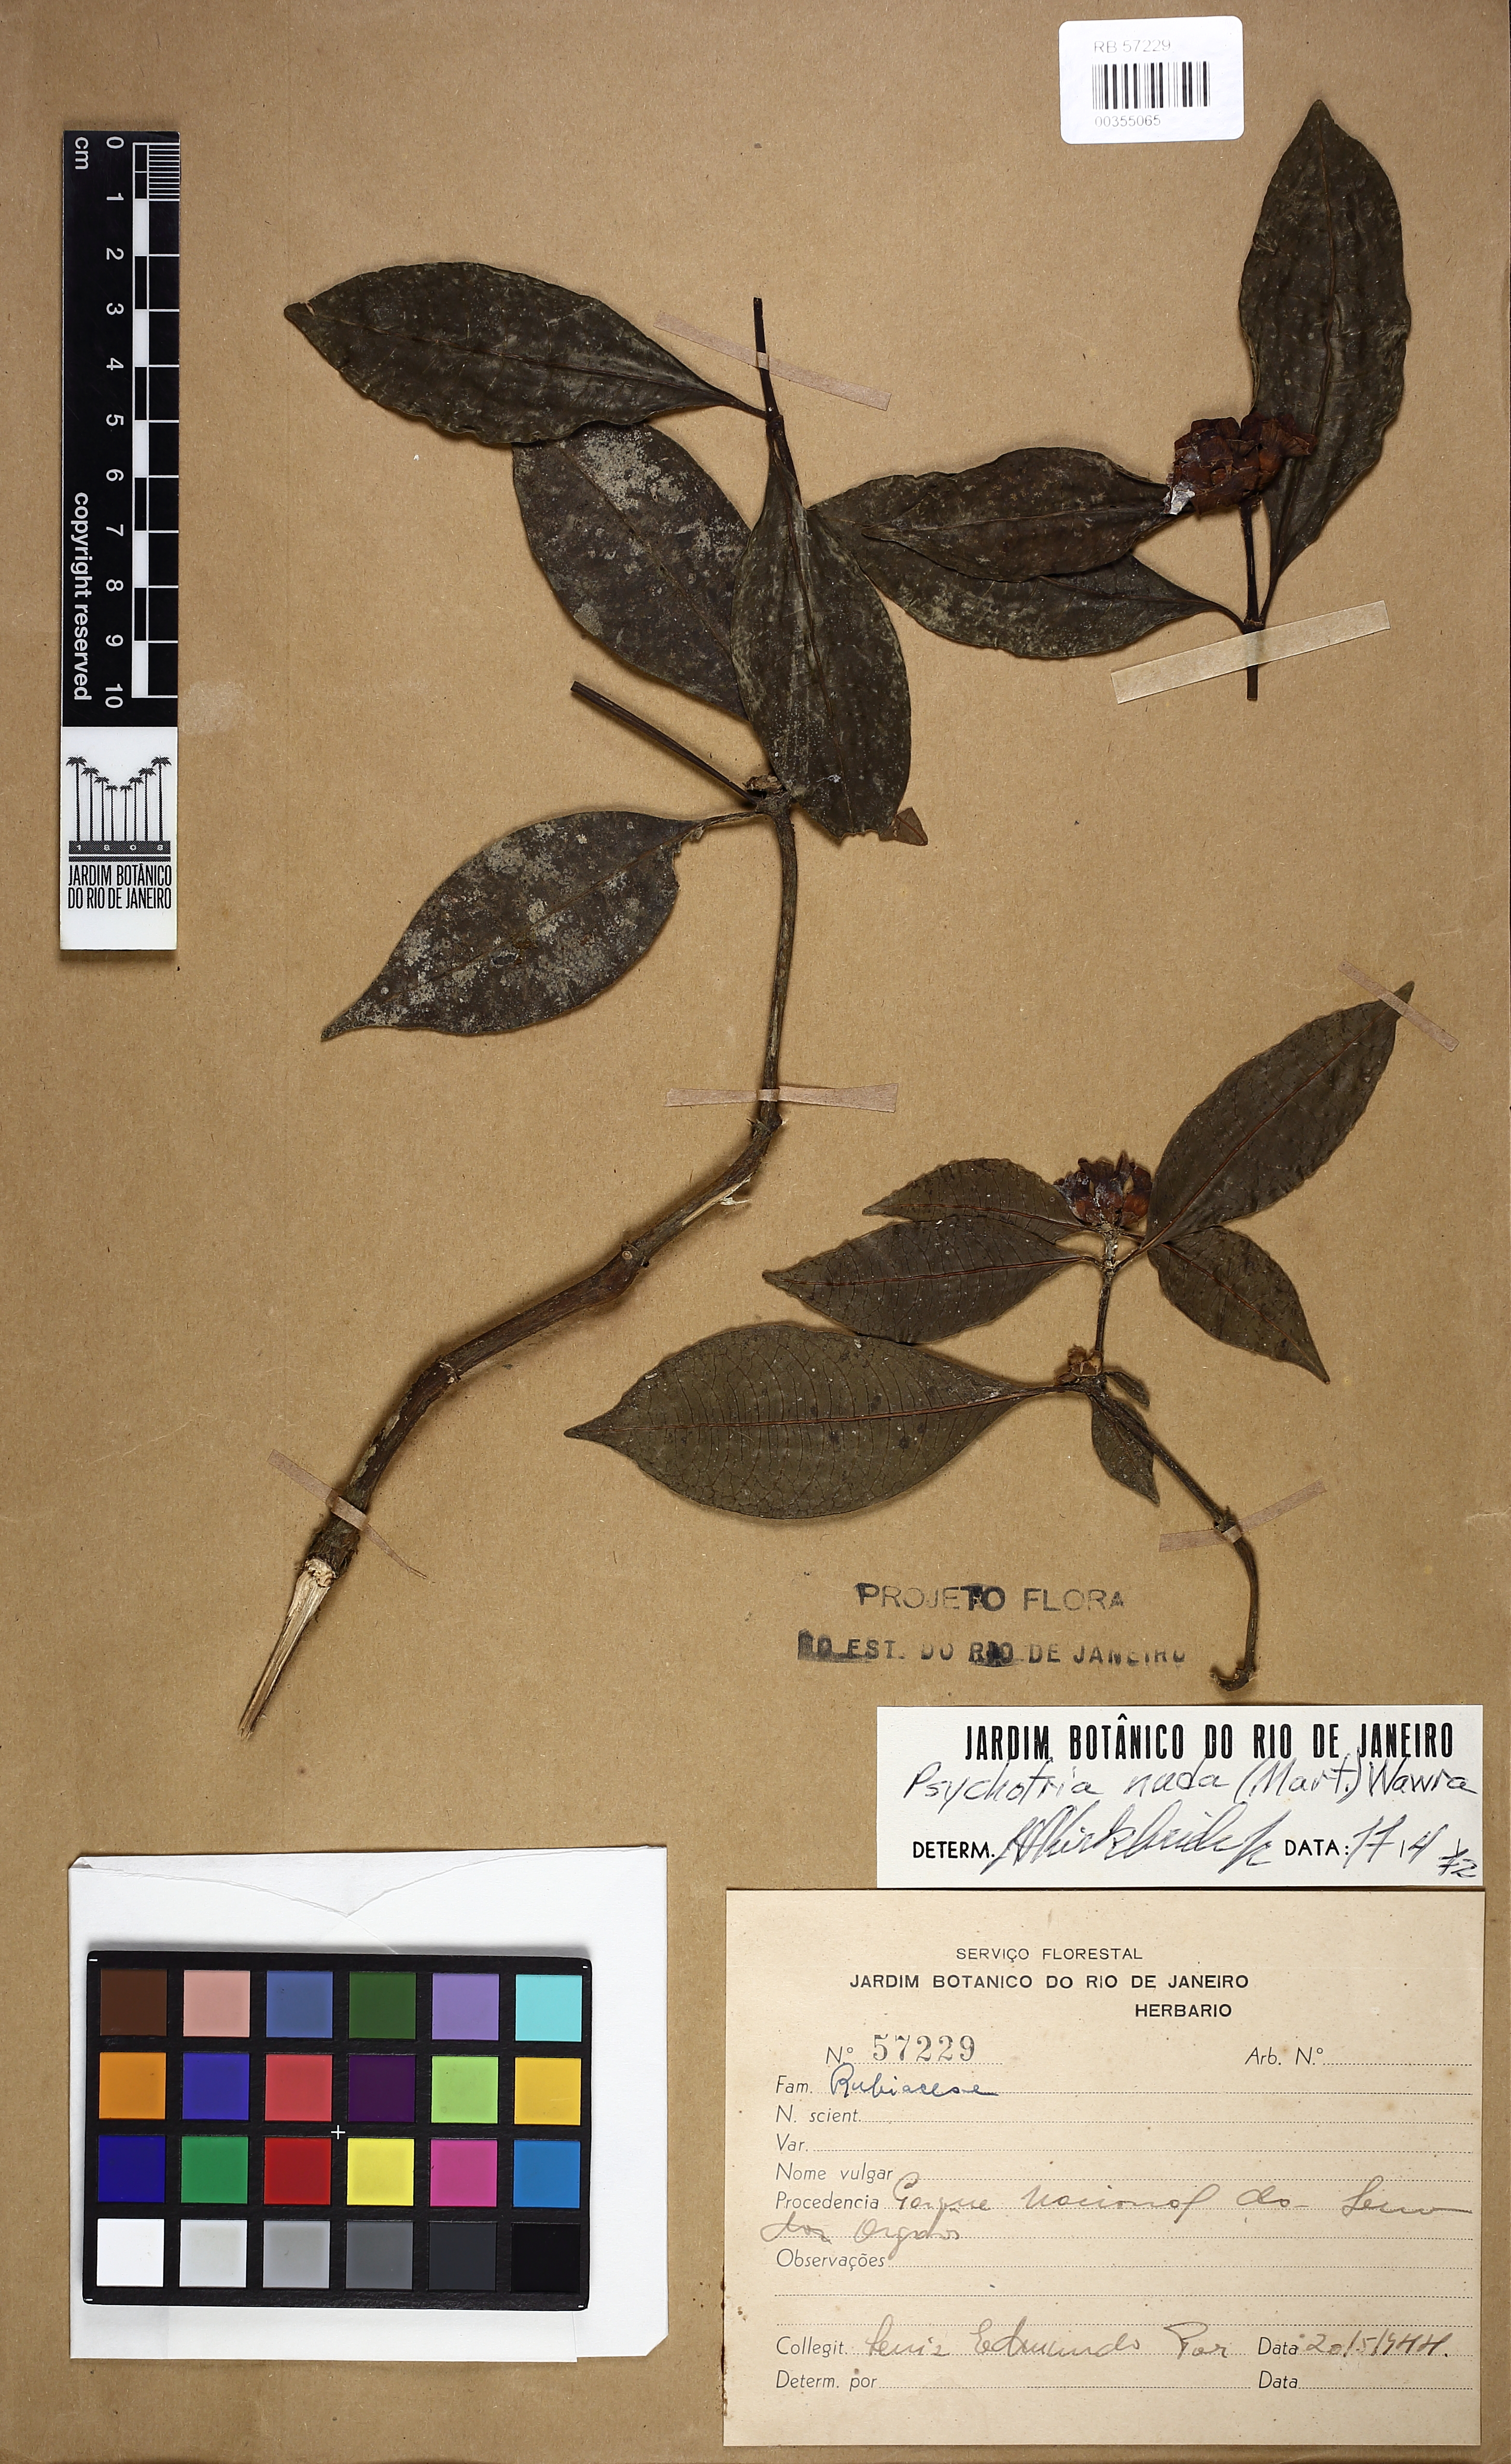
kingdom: Plantae
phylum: Tracheophyta
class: Magnoliopsida
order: Gentianales
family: Rubiaceae
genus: Psychotria
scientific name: Psychotria nuda
